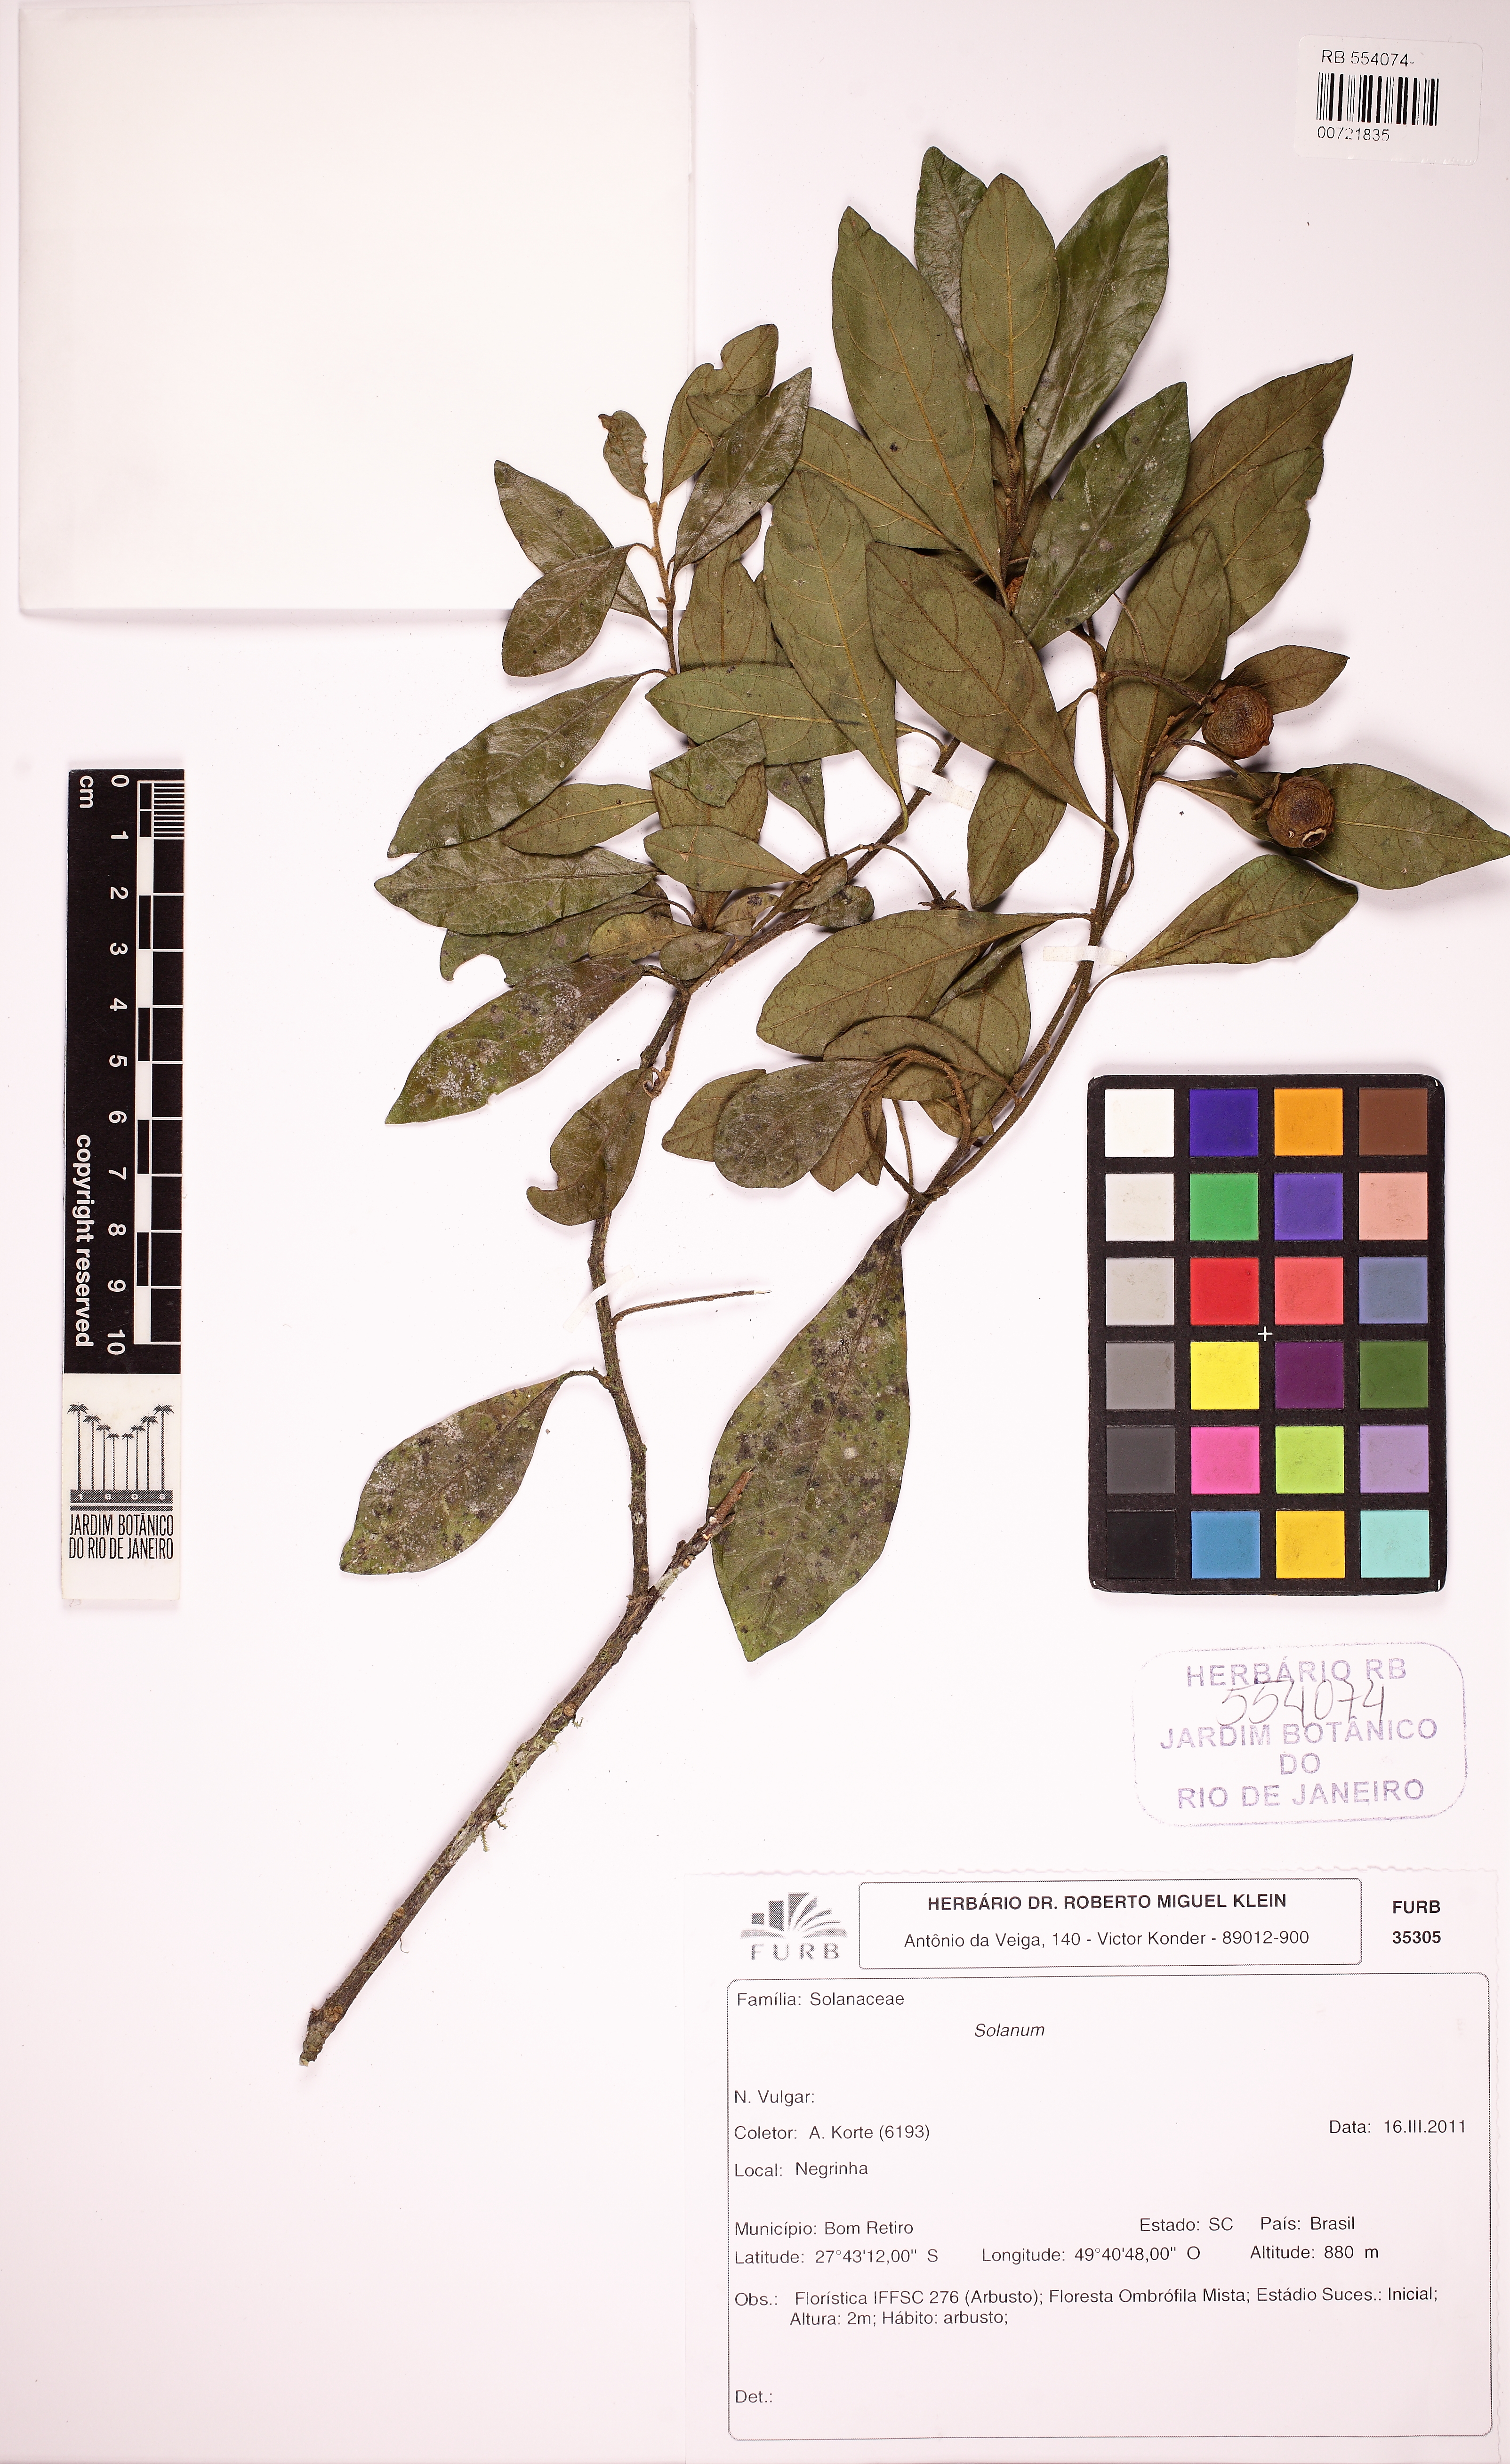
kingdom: Plantae
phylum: Tracheophyta
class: Magnoliopsida
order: Solanales
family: Solanaceae
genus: Solanum
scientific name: Solanum cassioides
